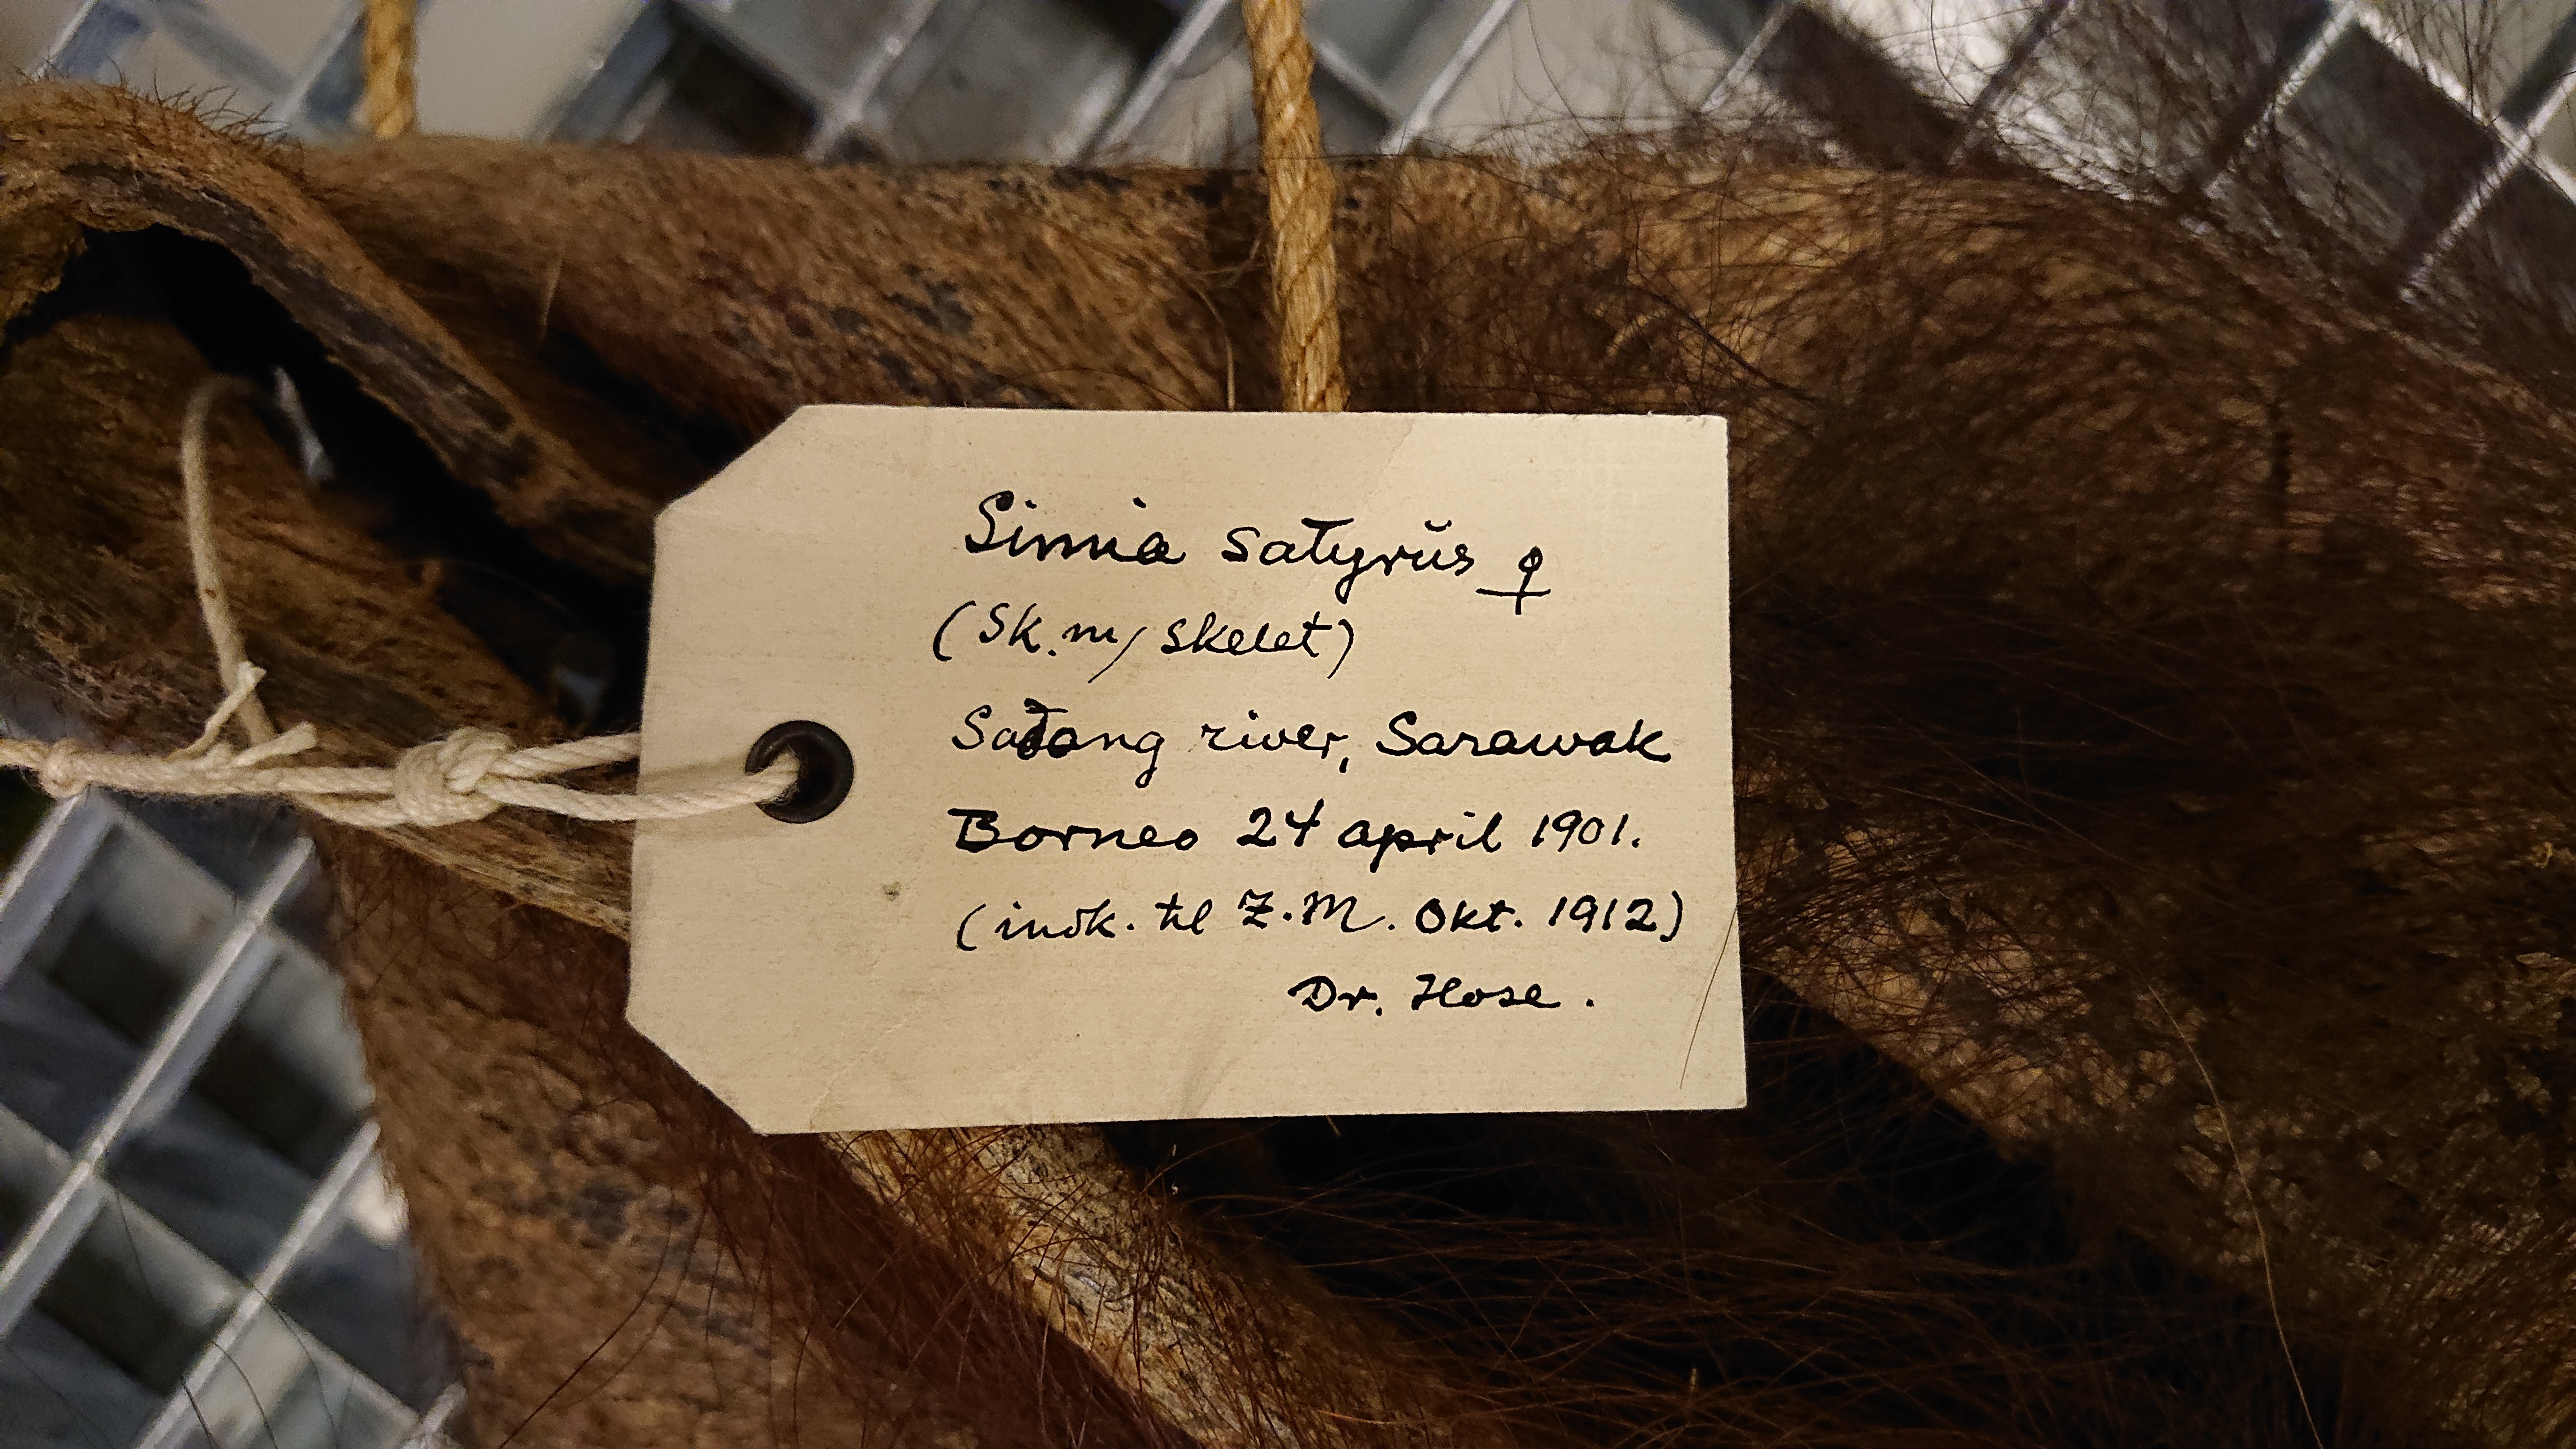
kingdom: Animalia
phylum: Chordata
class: Mammalia
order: Primates
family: Hominidae
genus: Pongo
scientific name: Pongo pygmaeus
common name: Bornean orangutan
